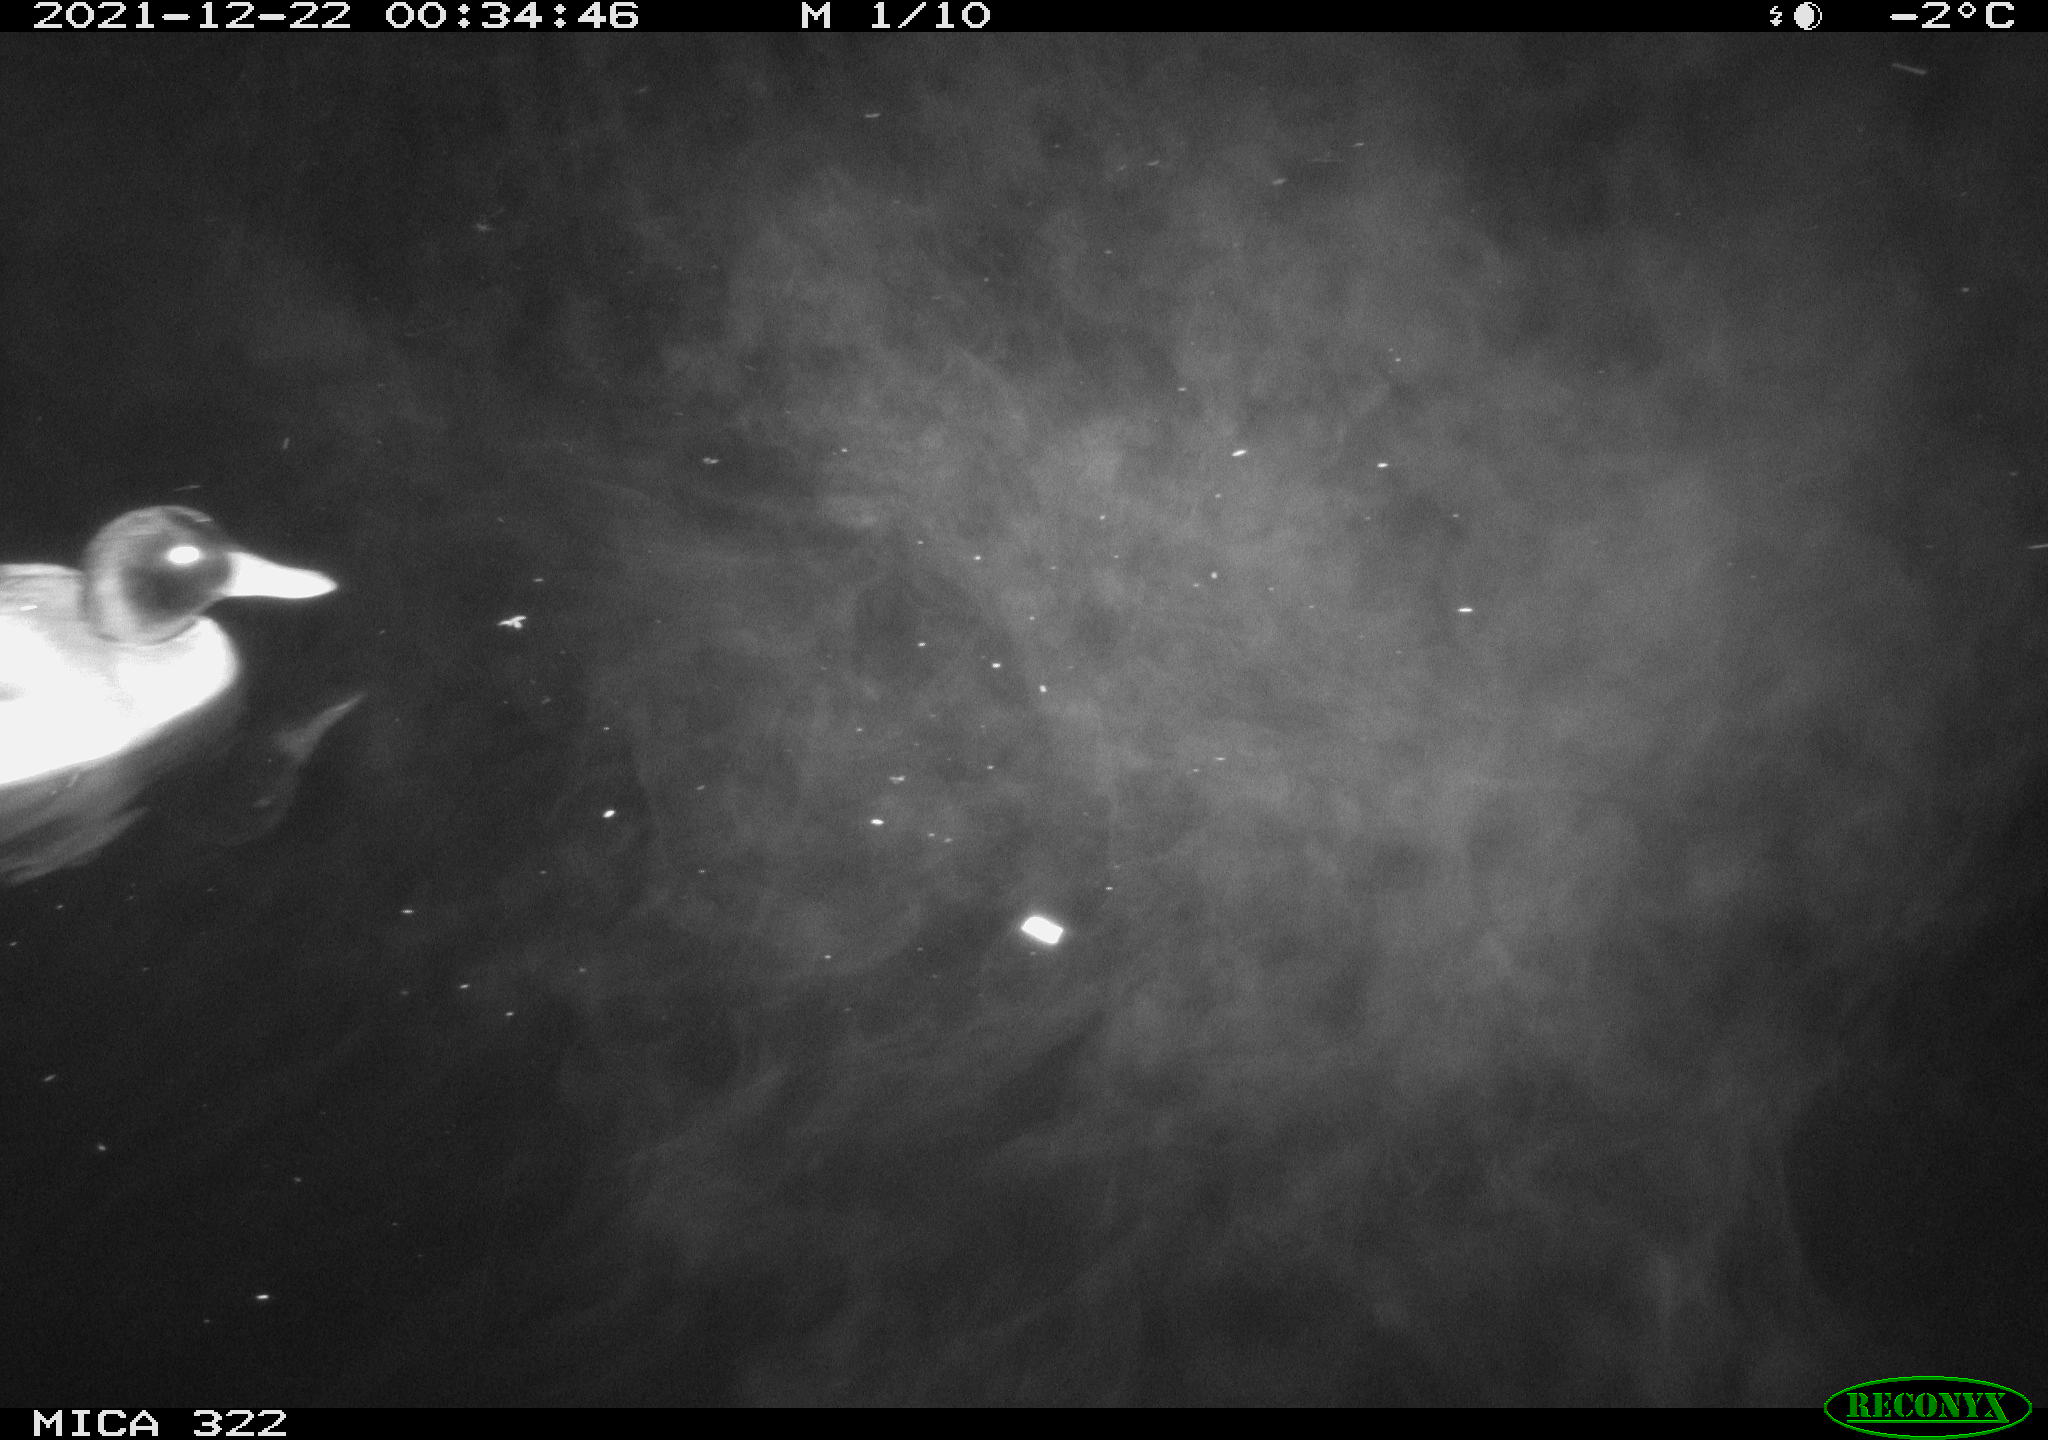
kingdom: Animalia
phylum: Chordata
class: Aves
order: Anseriformes
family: Anatidae
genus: Anas
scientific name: Anas
